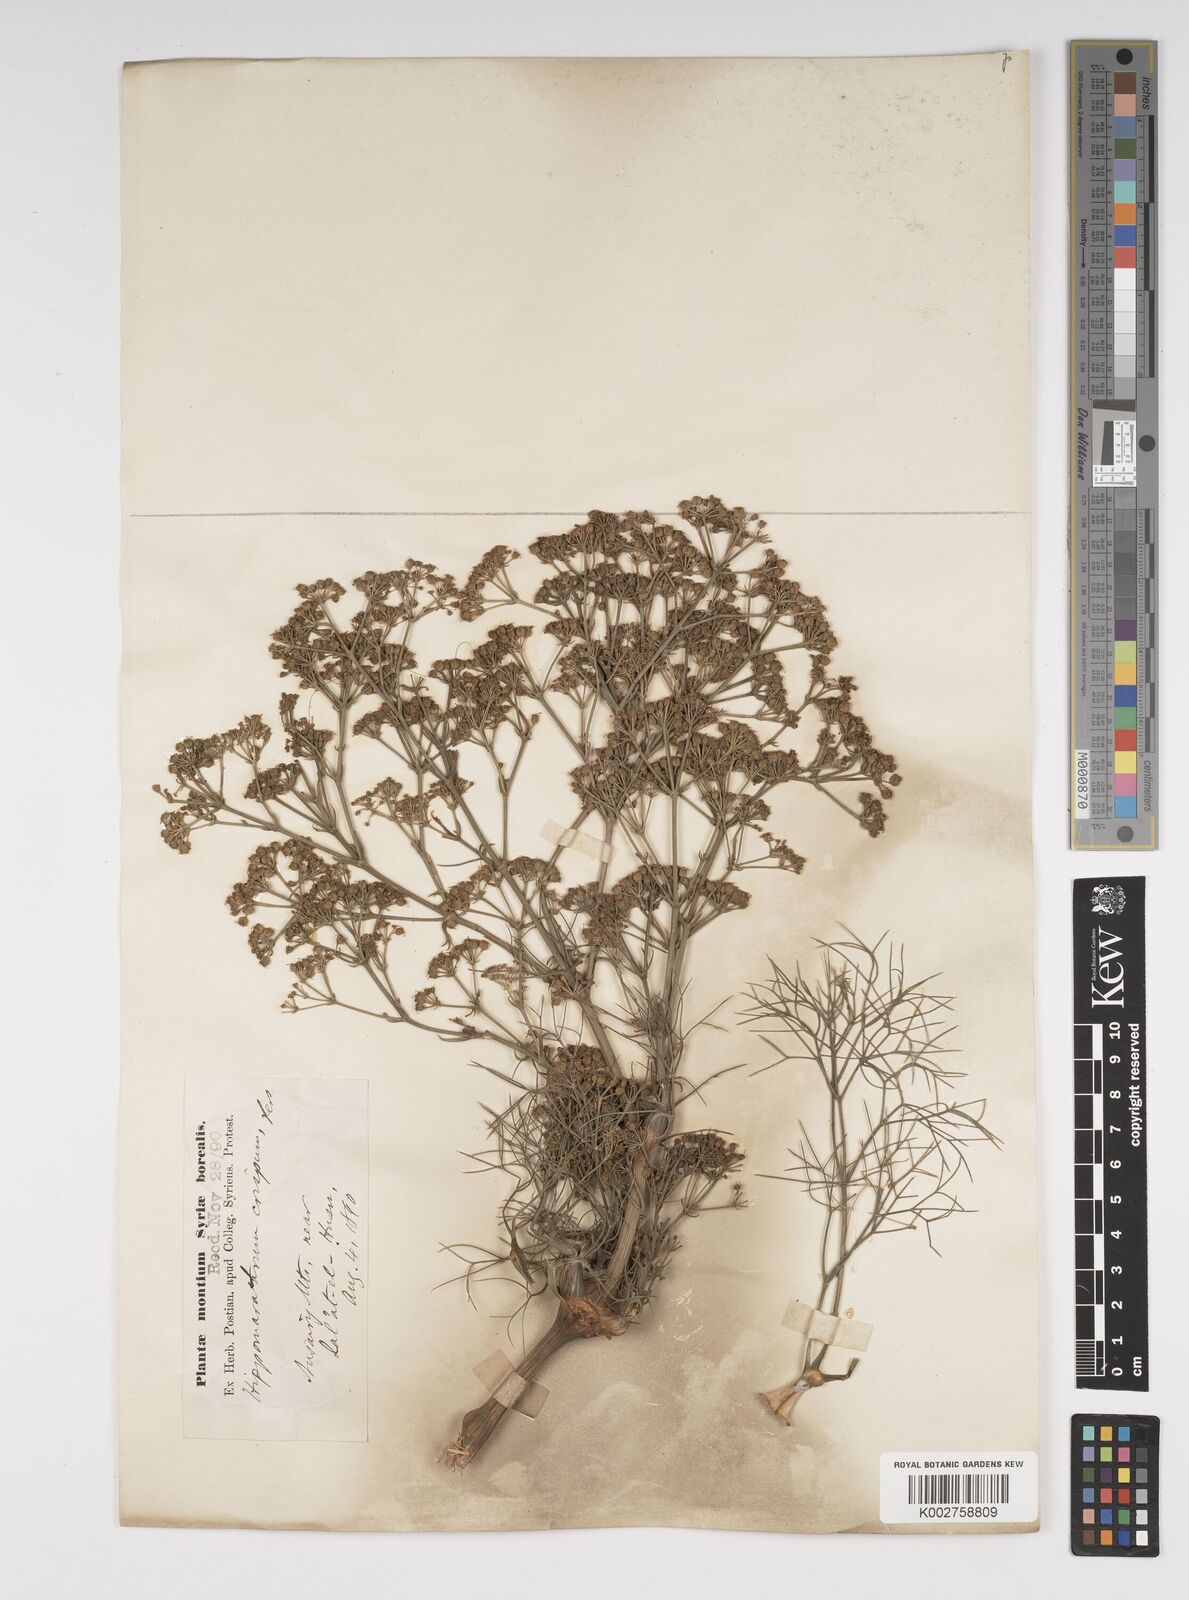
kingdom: Plantae
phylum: Tracheophyta
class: Magnoliopsida
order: Apiales
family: Apiaceae
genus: Bilacunaria
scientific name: Bilacunaria microcarpa
